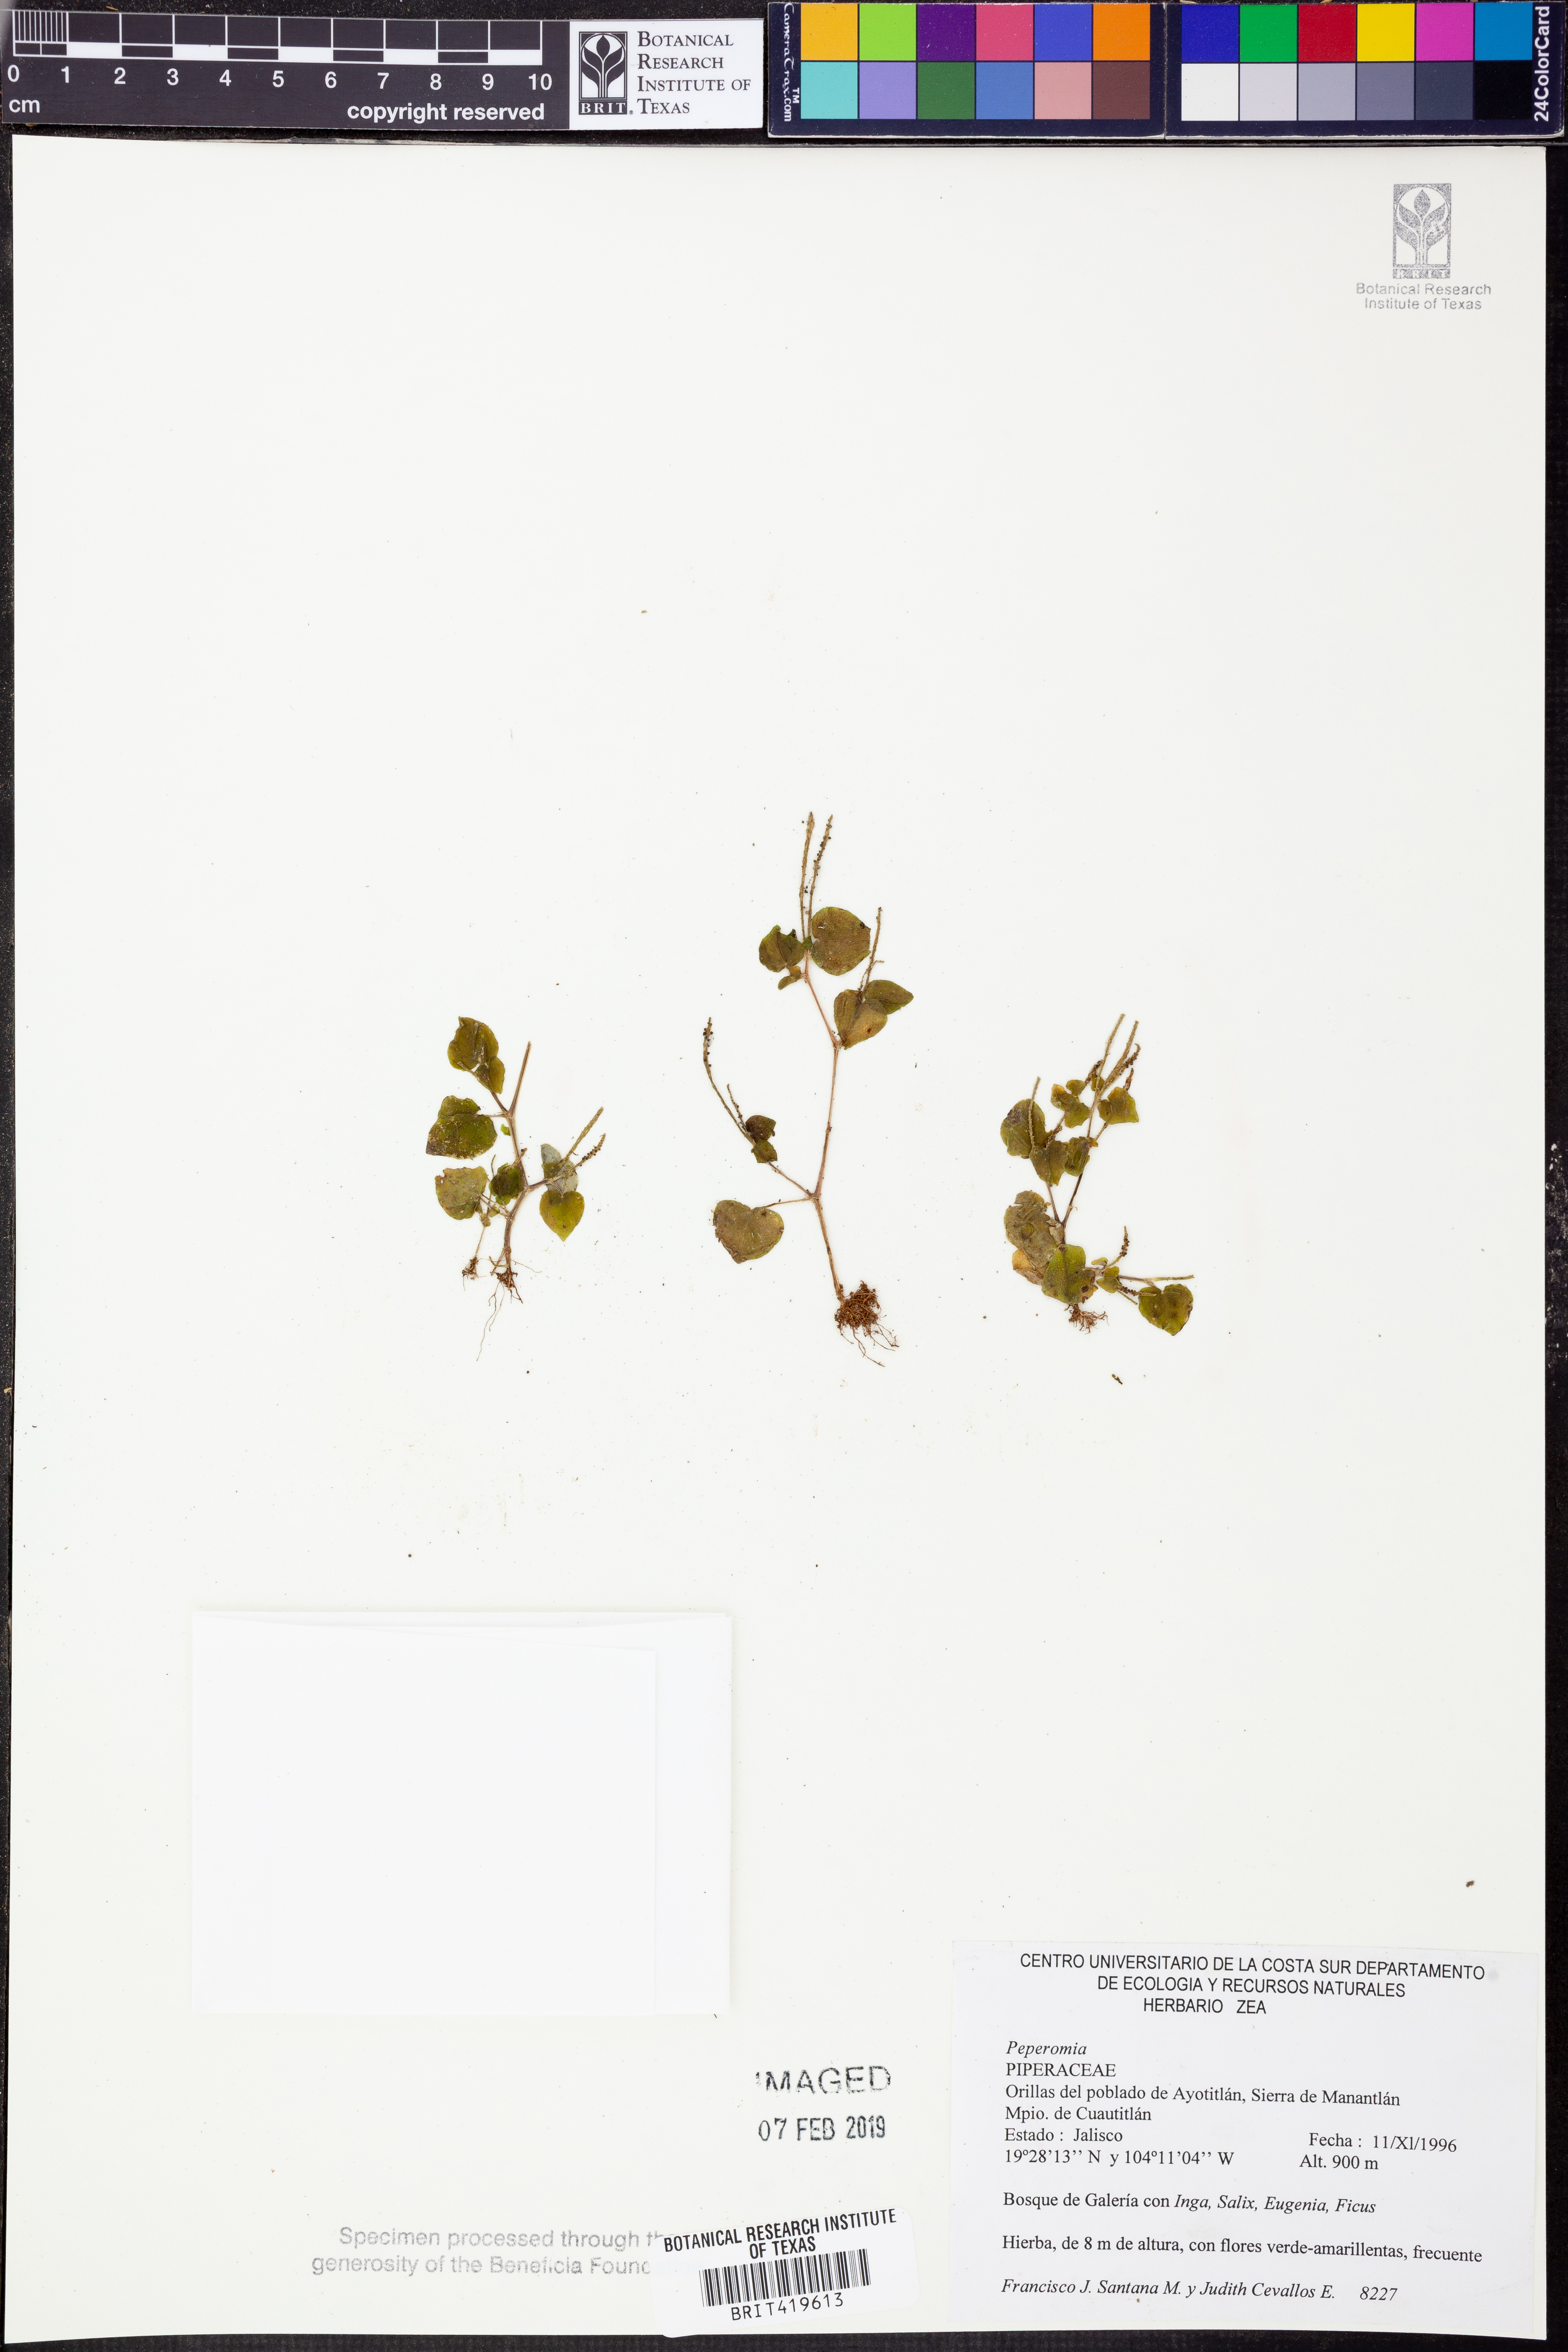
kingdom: Plantae
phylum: Tracheophyta
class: Magnoliopsida
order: Piperales
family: Piperaceae
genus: Peperomia
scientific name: Peperomia
